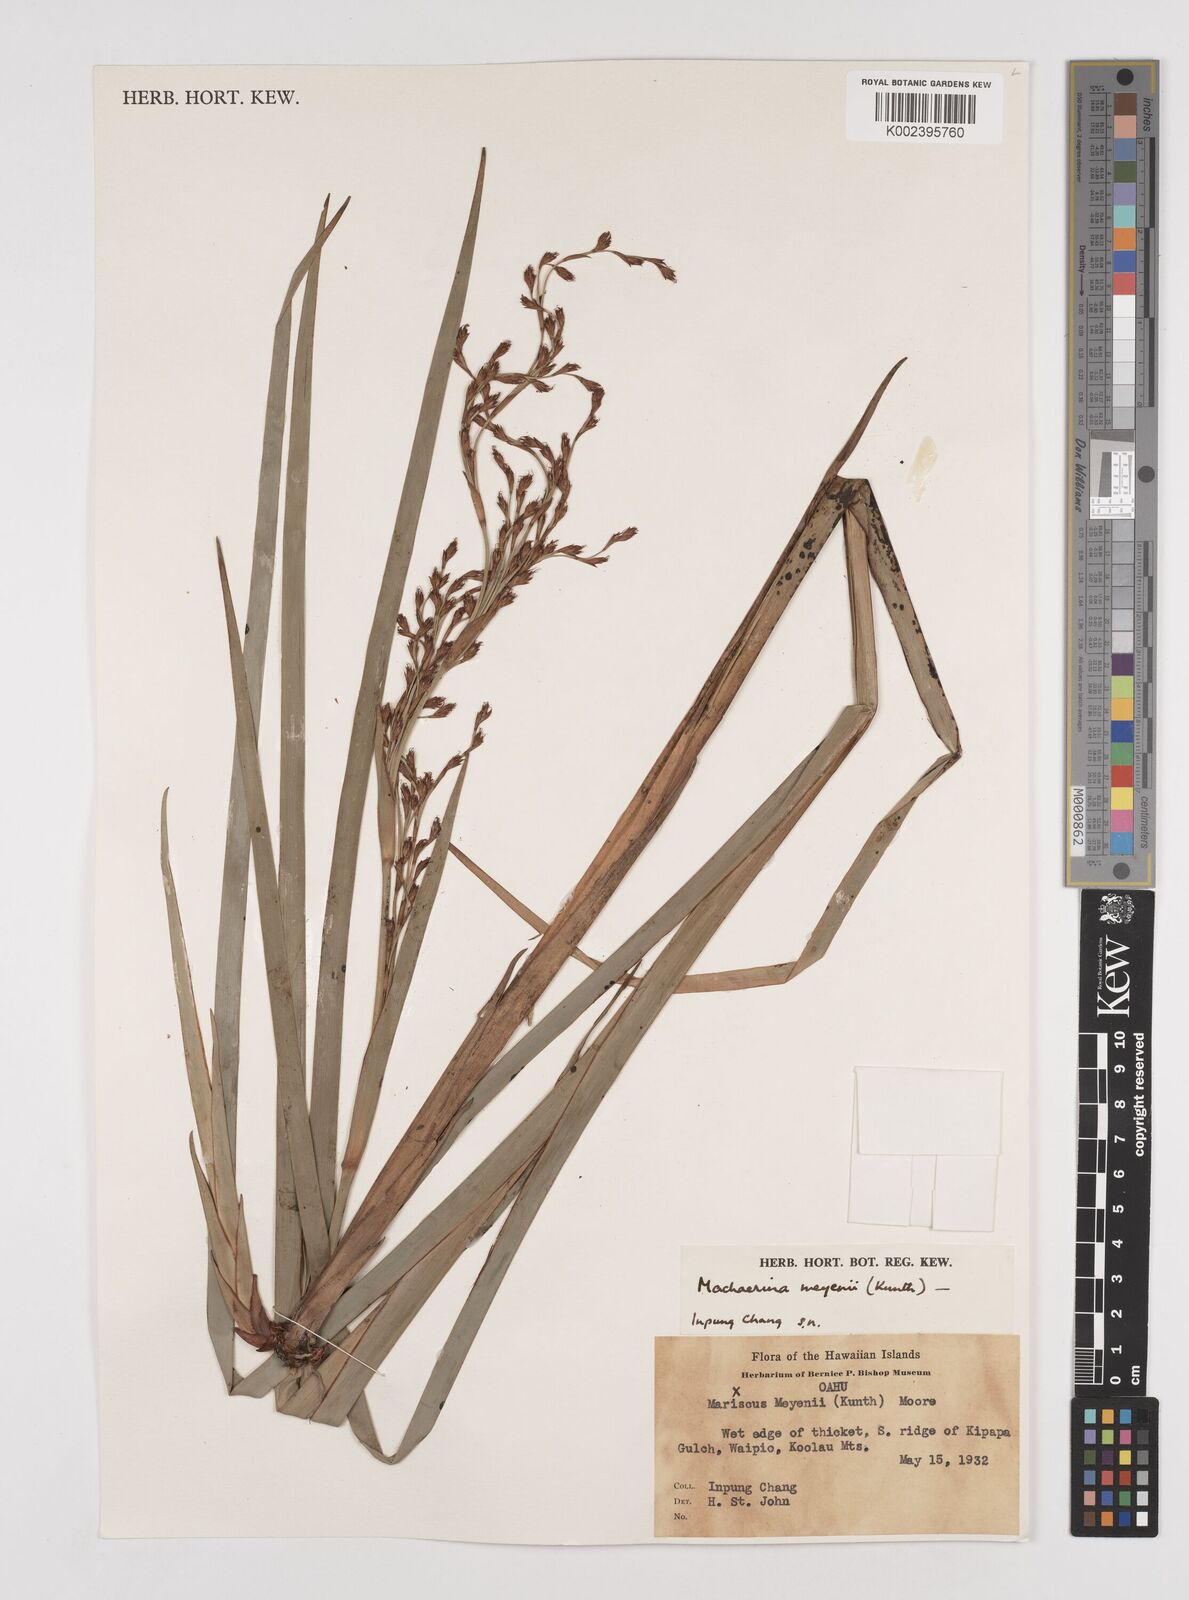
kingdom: Plantae
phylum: Tracheophyta
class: Liliopsida
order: Poales
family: Cyperaceae
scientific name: Cyperaceae
